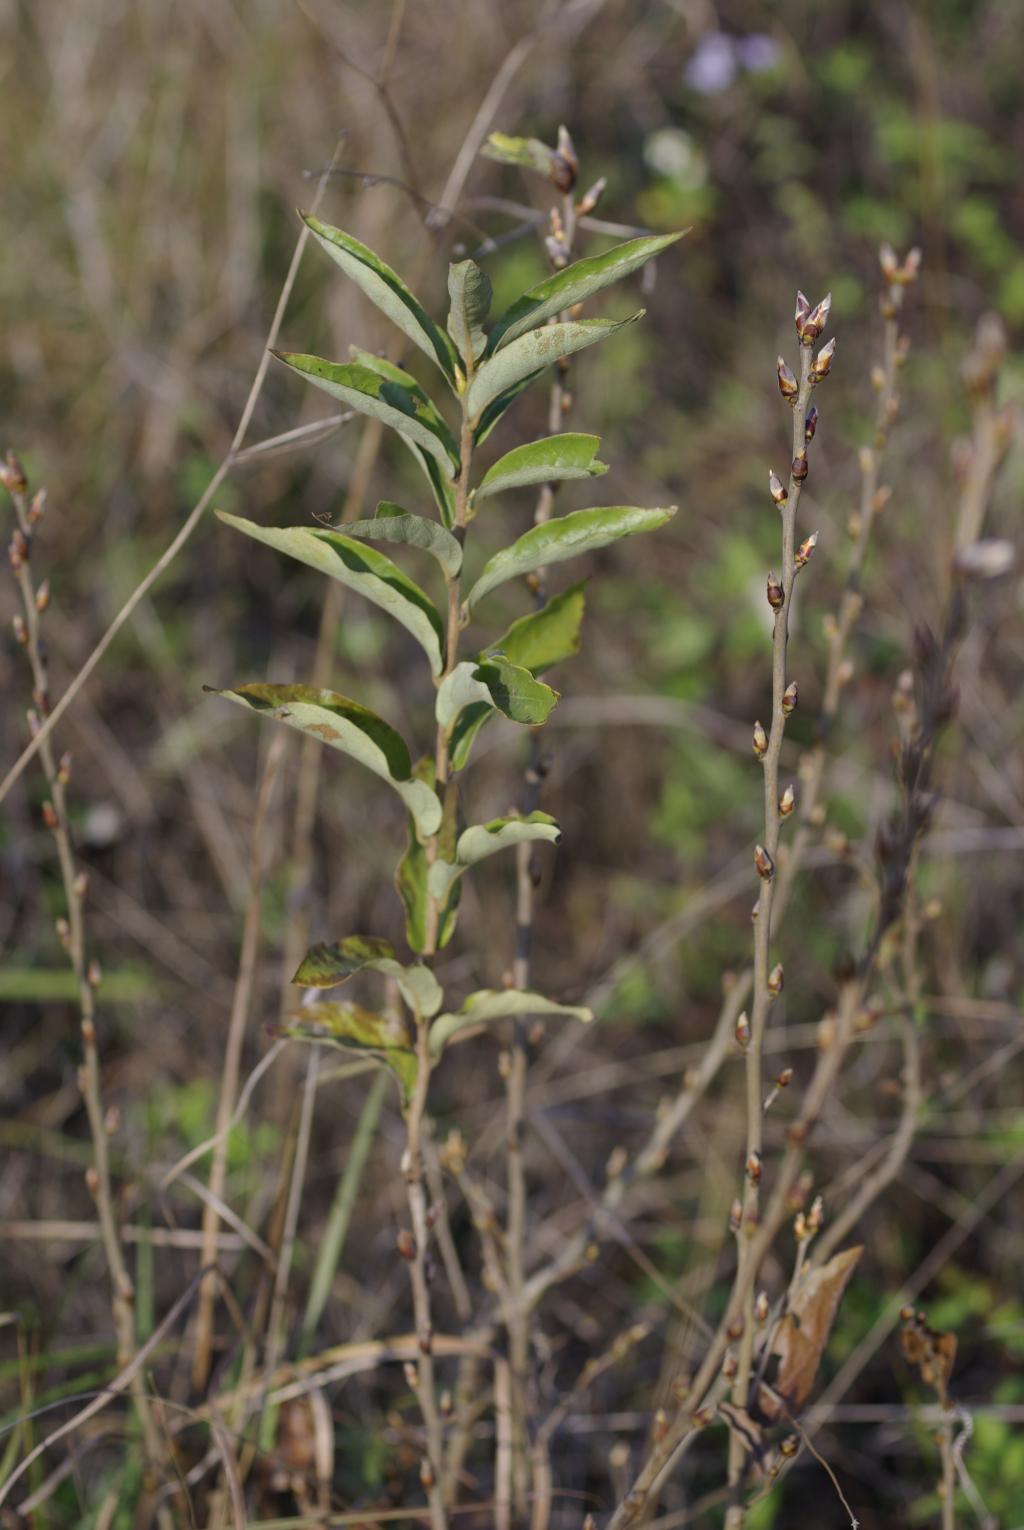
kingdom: Plantae
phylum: Tracheophyta
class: Magnoliopsida
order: Laurales
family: Lauraceae
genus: Lindera
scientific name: Lindera glauca
